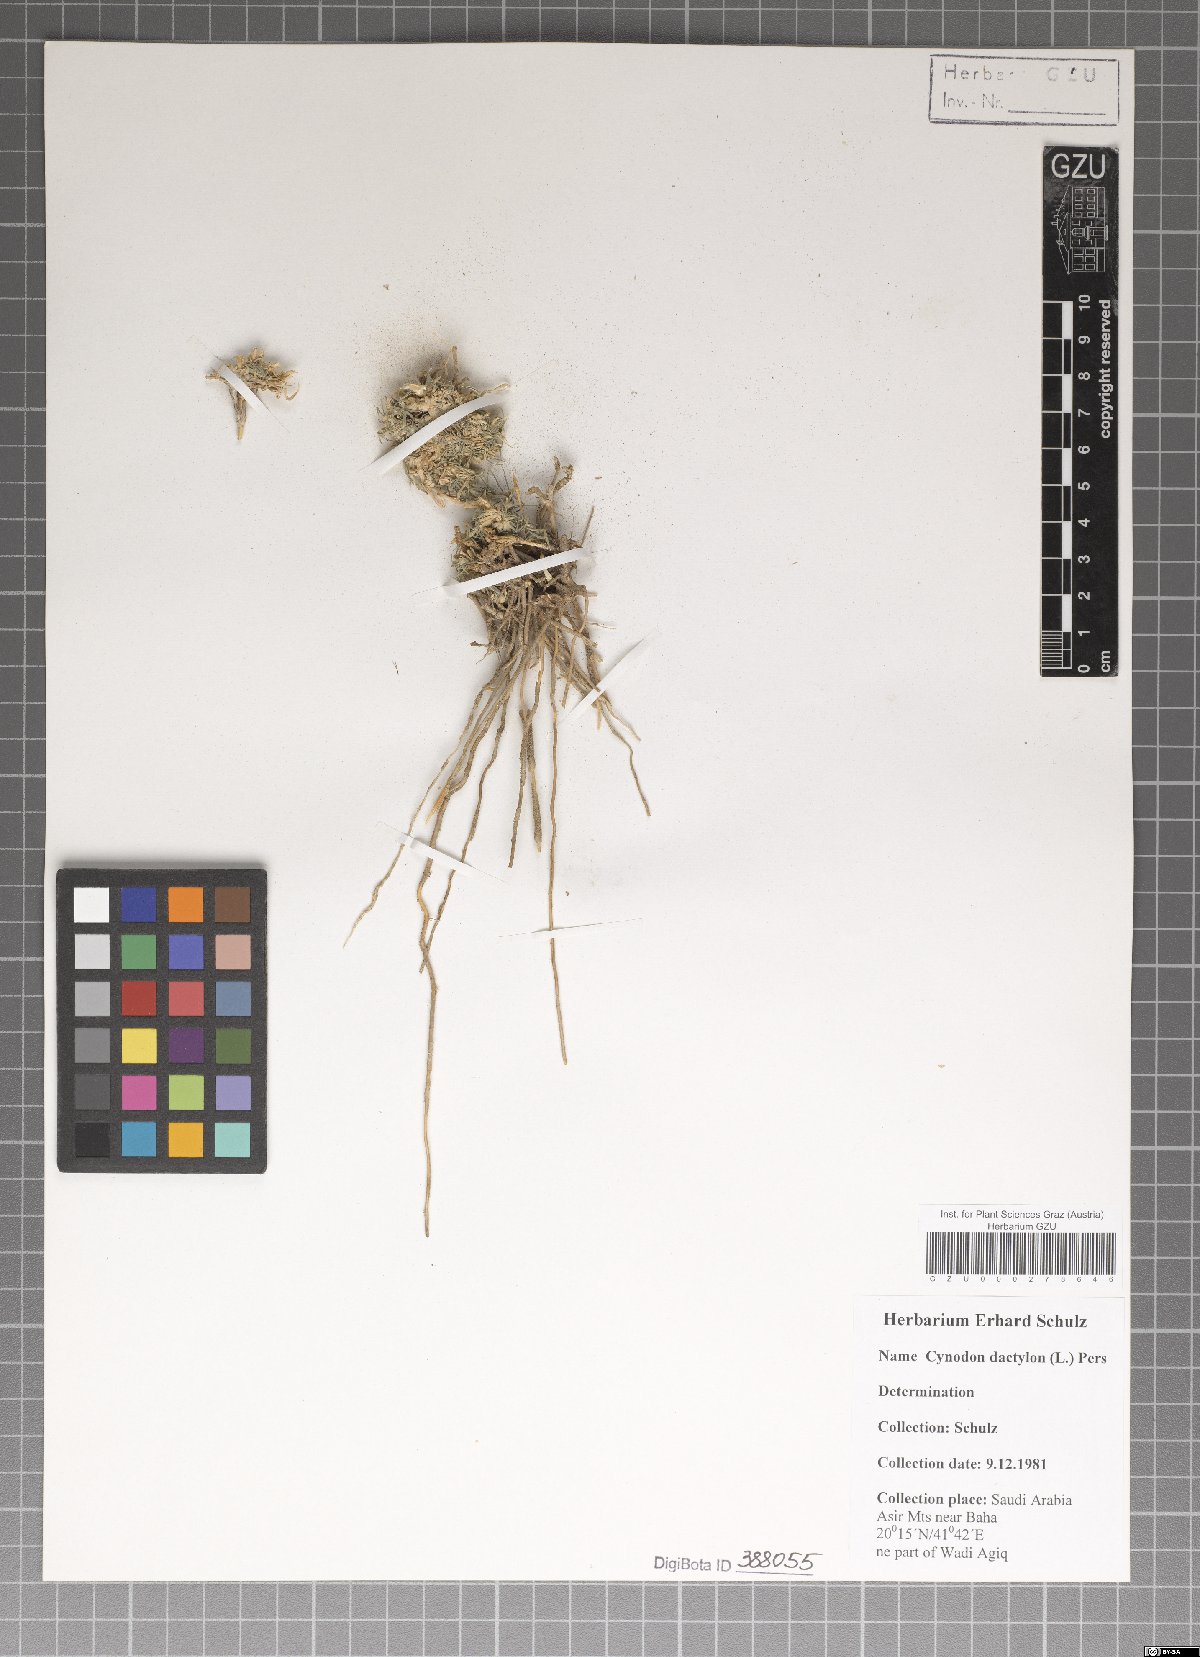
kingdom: Plantae
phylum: Tracheophyta
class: Liliopsida
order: Poales
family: Poaceae
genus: Cynodon
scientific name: Cynodon dactylon
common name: Bermuda grass
